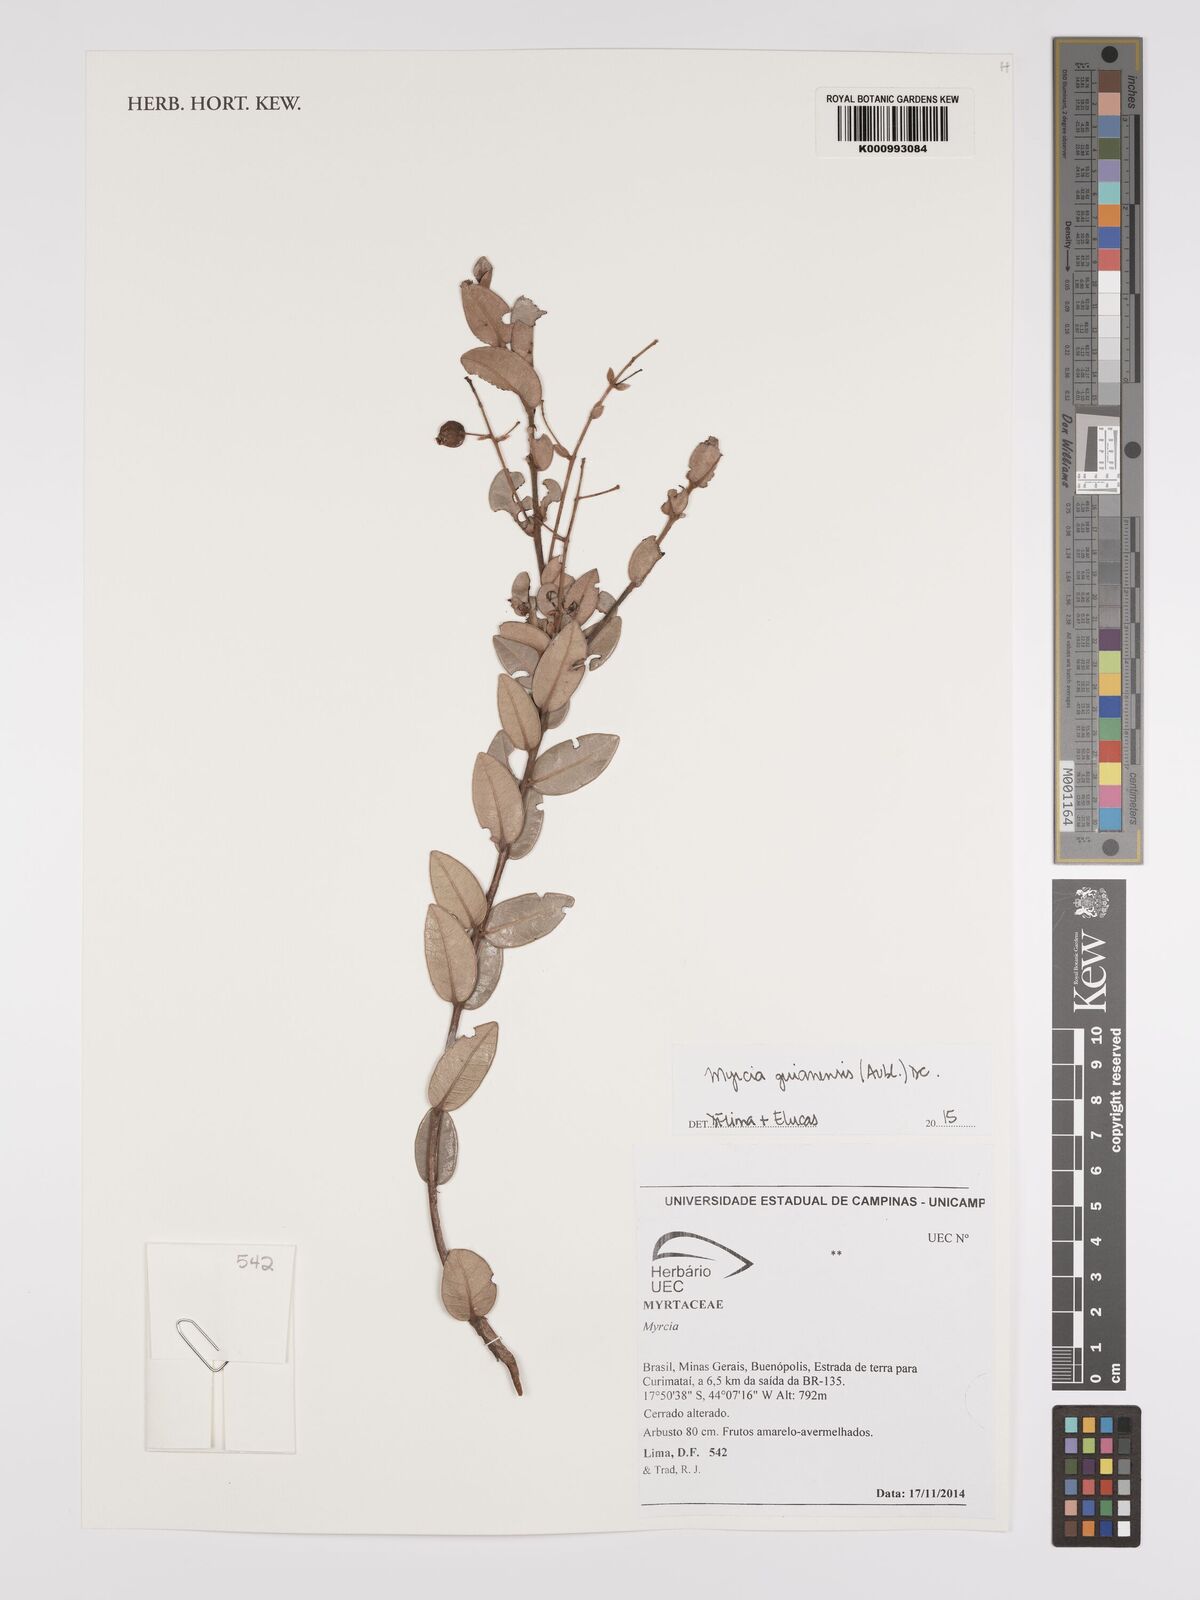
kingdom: Plantae
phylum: Tracheophyta
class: Magnoliopsida
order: Myrtales
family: Myrtaceae
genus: Myrcia
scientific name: Myrcia guianensis
